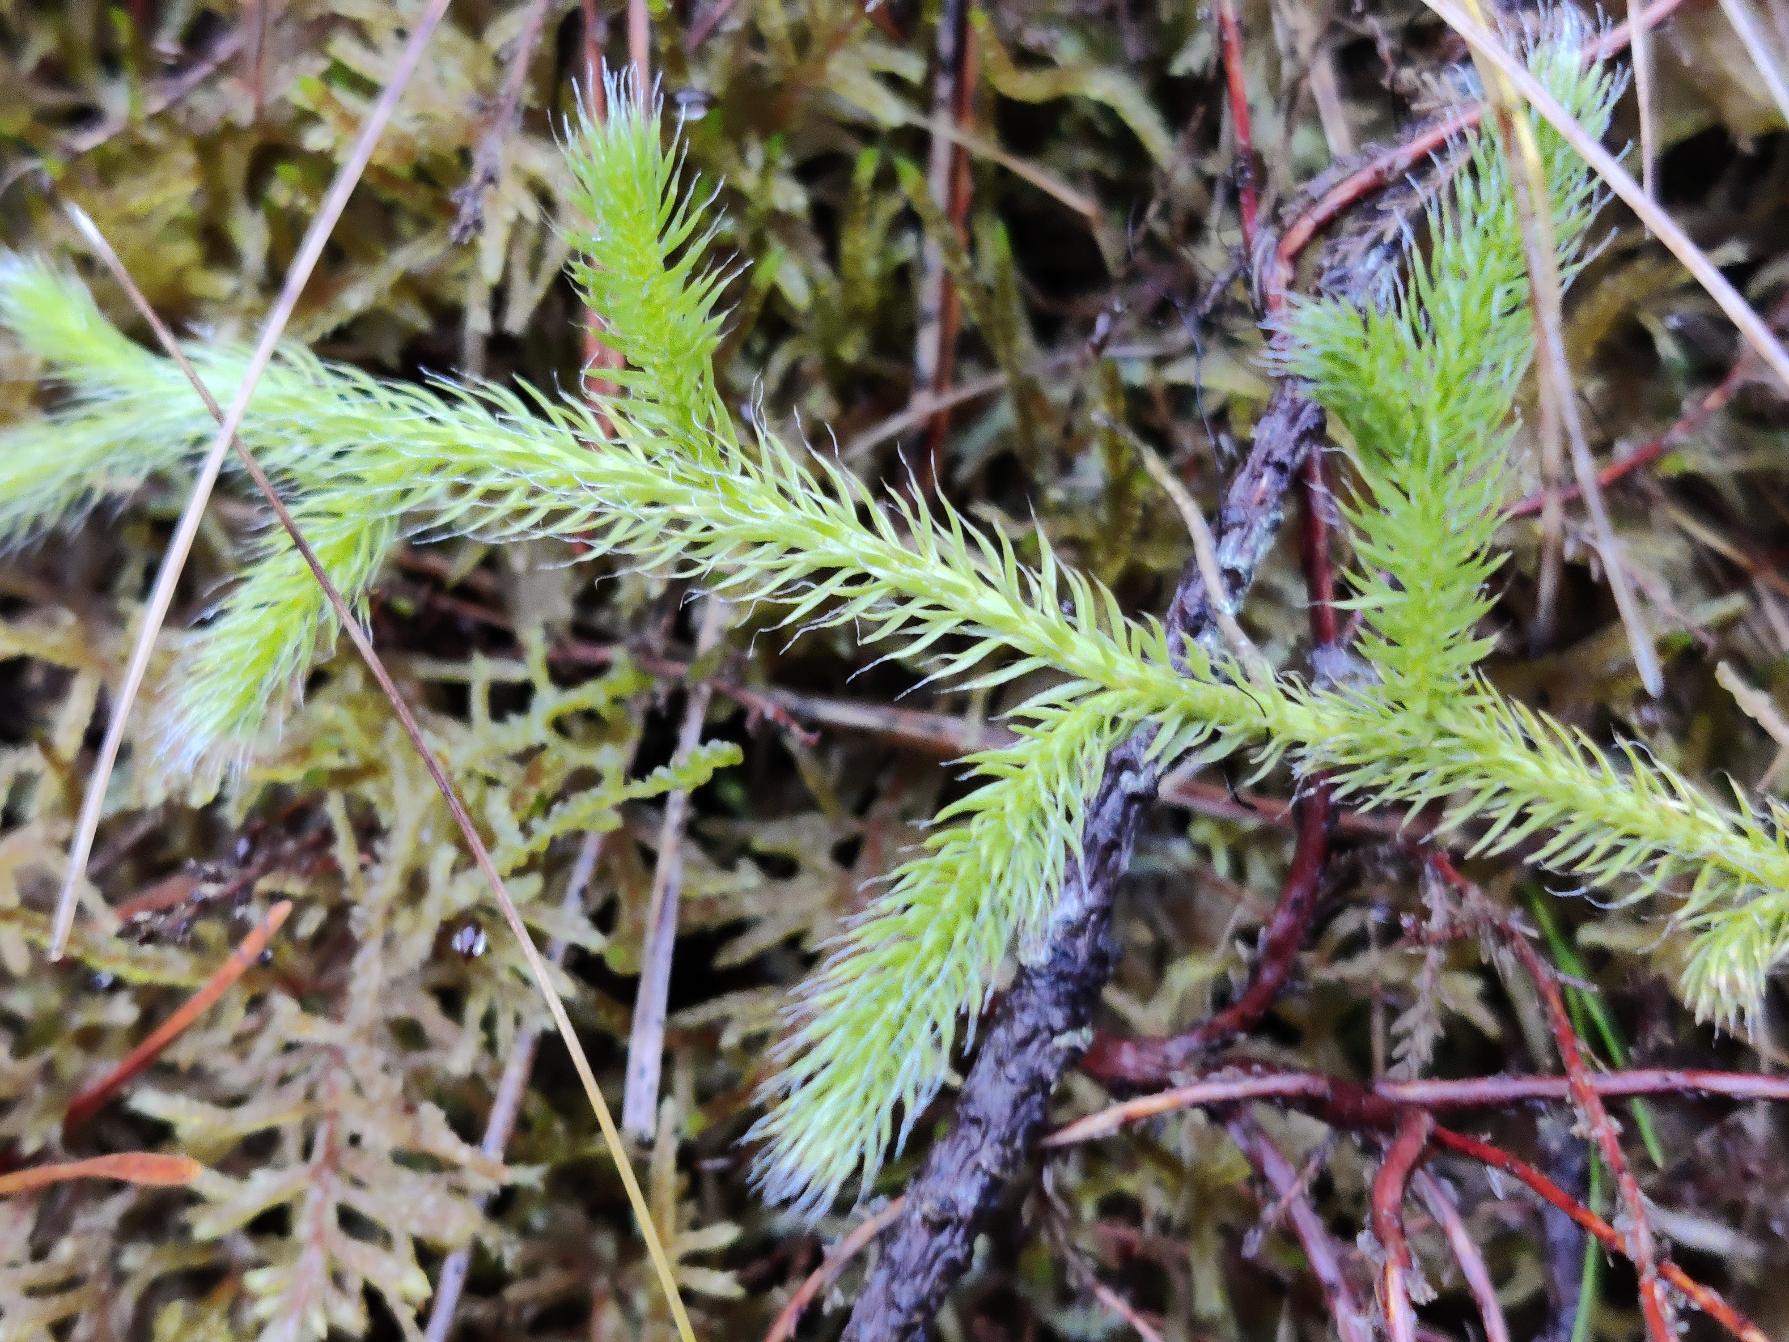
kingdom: Plantae
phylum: Tracheophyta
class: Lycopodiopsida
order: Lycopodiales
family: Lycopodiaceae
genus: Lycopodium
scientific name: Lycopodium clavatum
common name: Almindelig ulvefod
